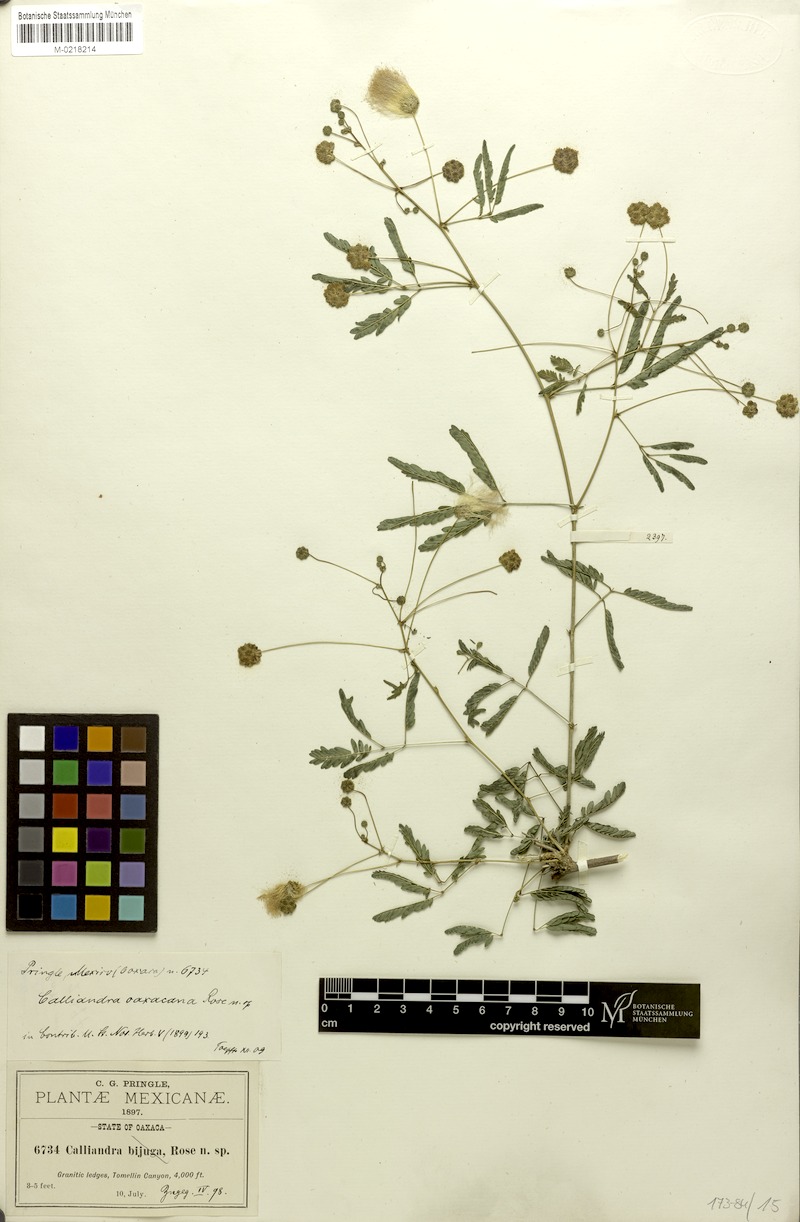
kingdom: Plantae
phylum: Tracheophyta
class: Magnoliopsida
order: Fabales
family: Fabaceae
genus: Zapoteca
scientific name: Zapoteca media
